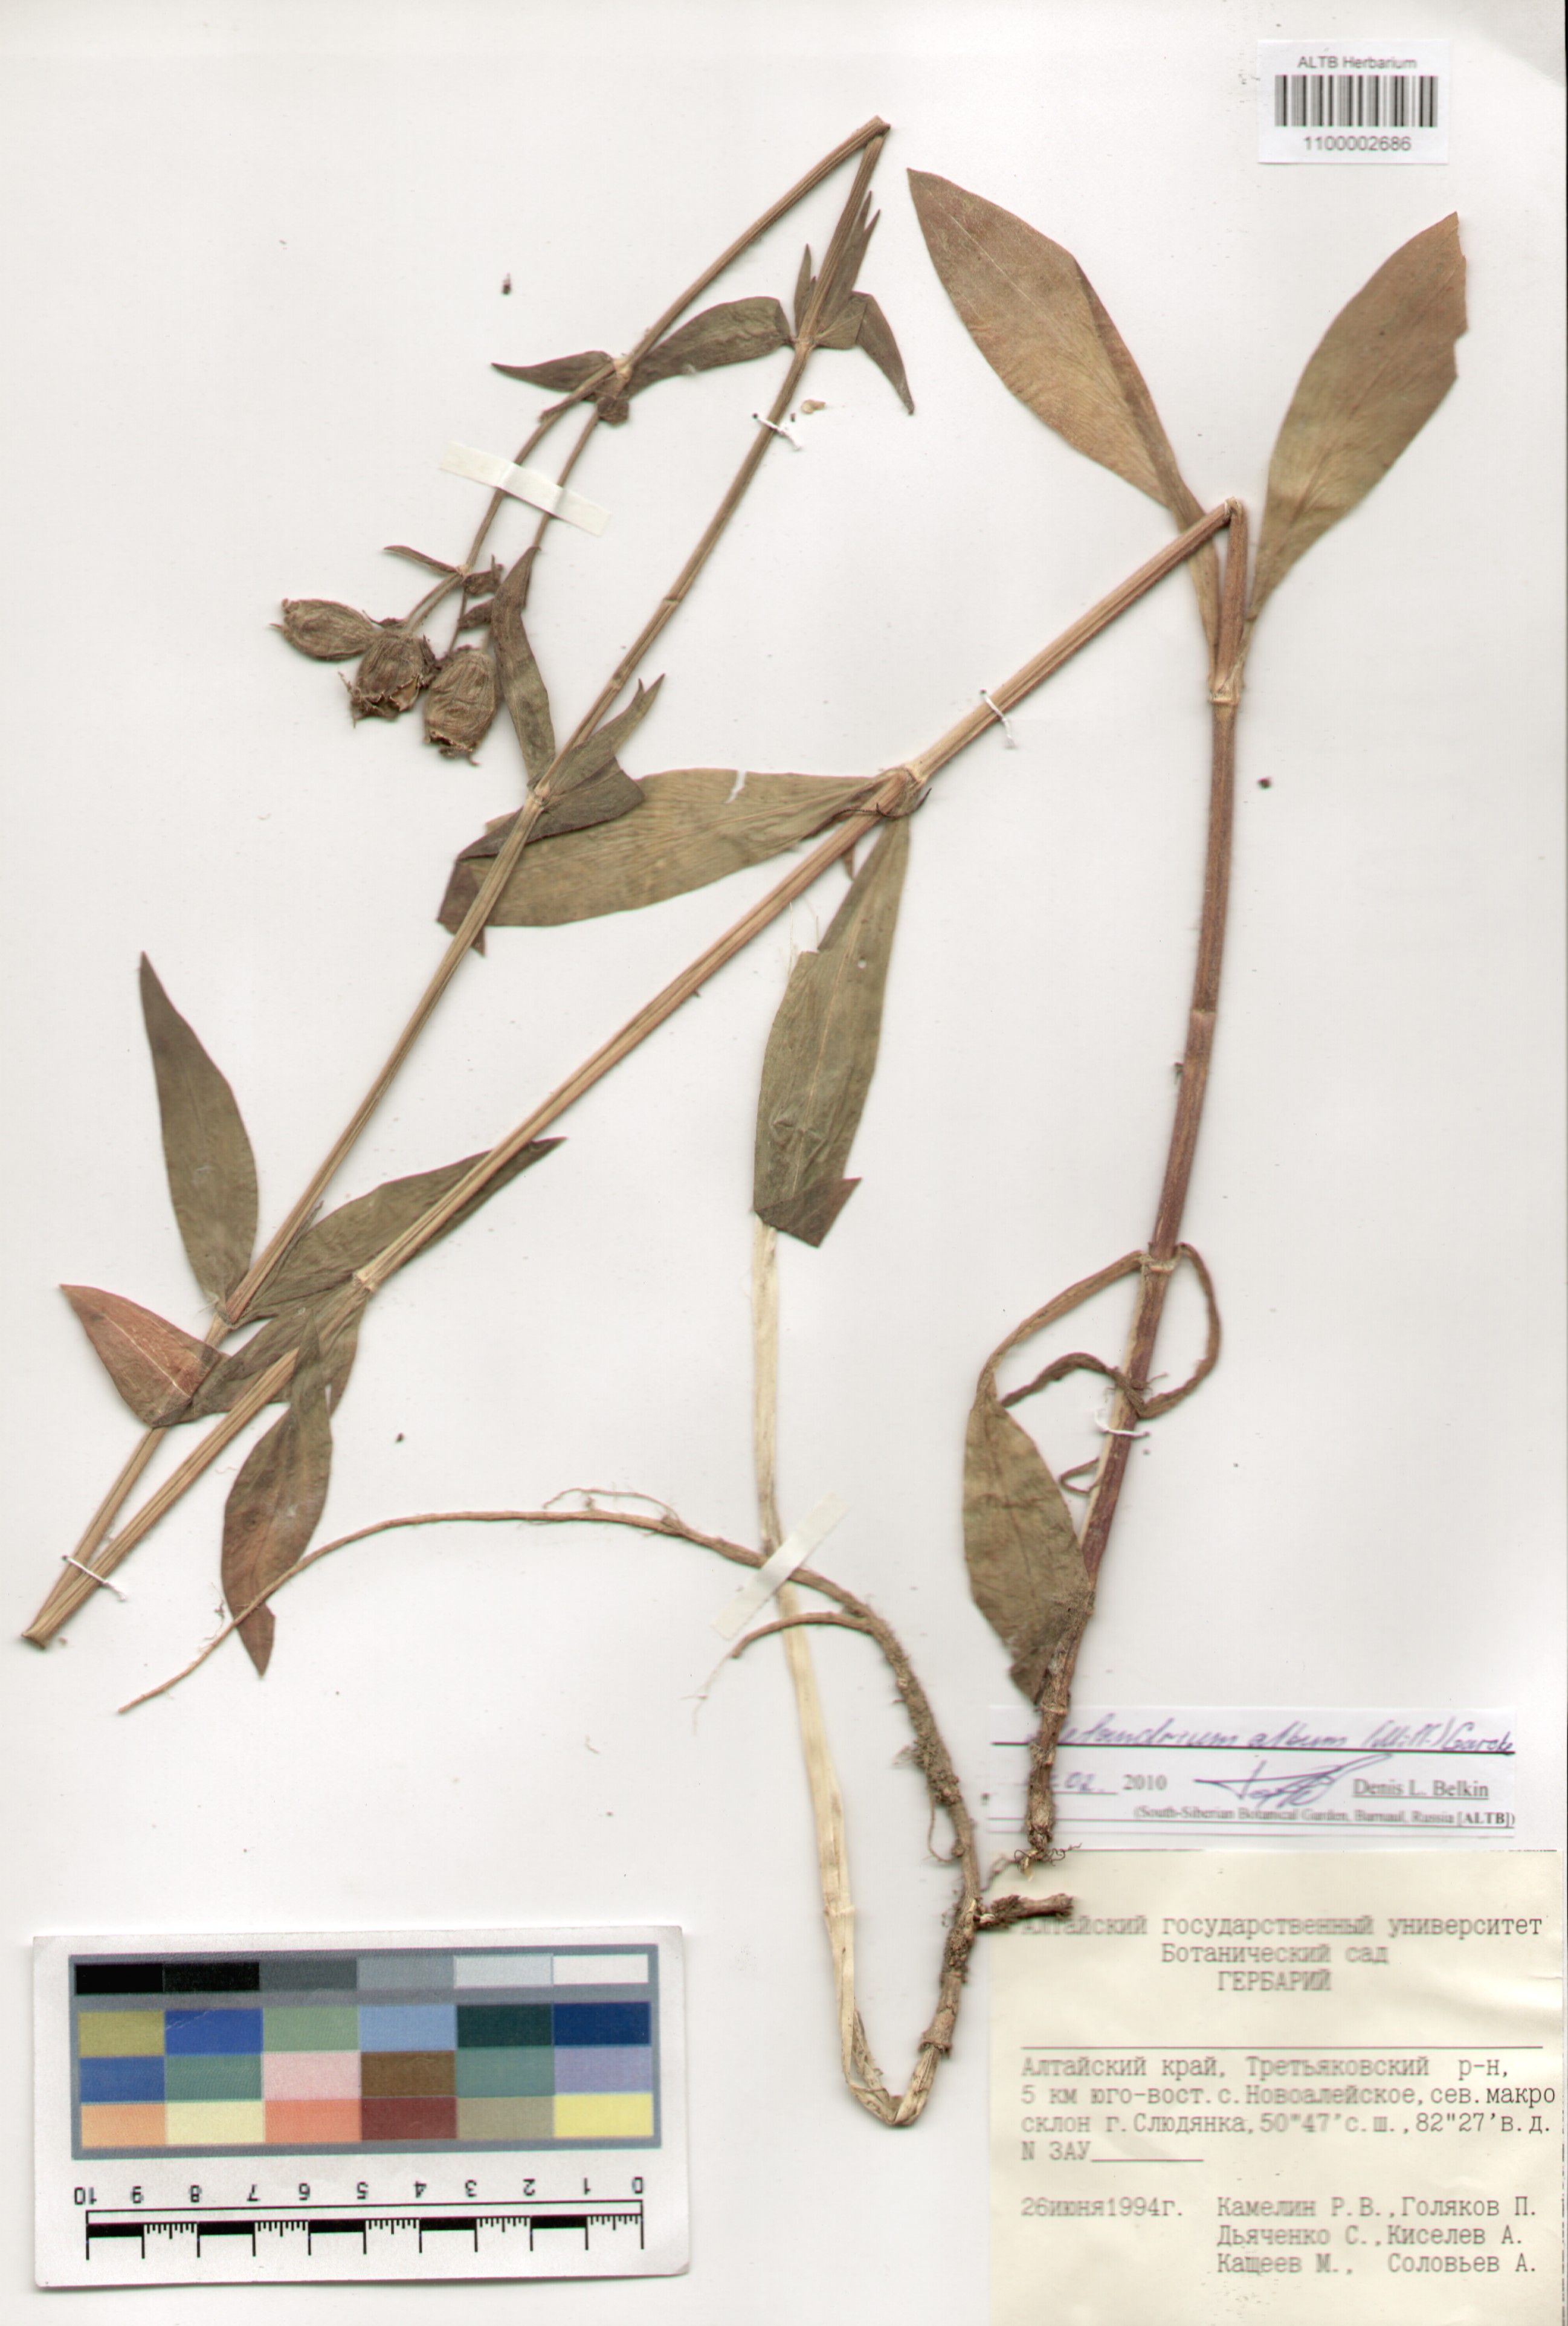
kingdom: Plantae
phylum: Tracheophyta
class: Magnoliopsida
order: Caryophyllales
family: Caryophyllaceae
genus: Silene
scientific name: Silene latifolia
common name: White campion
